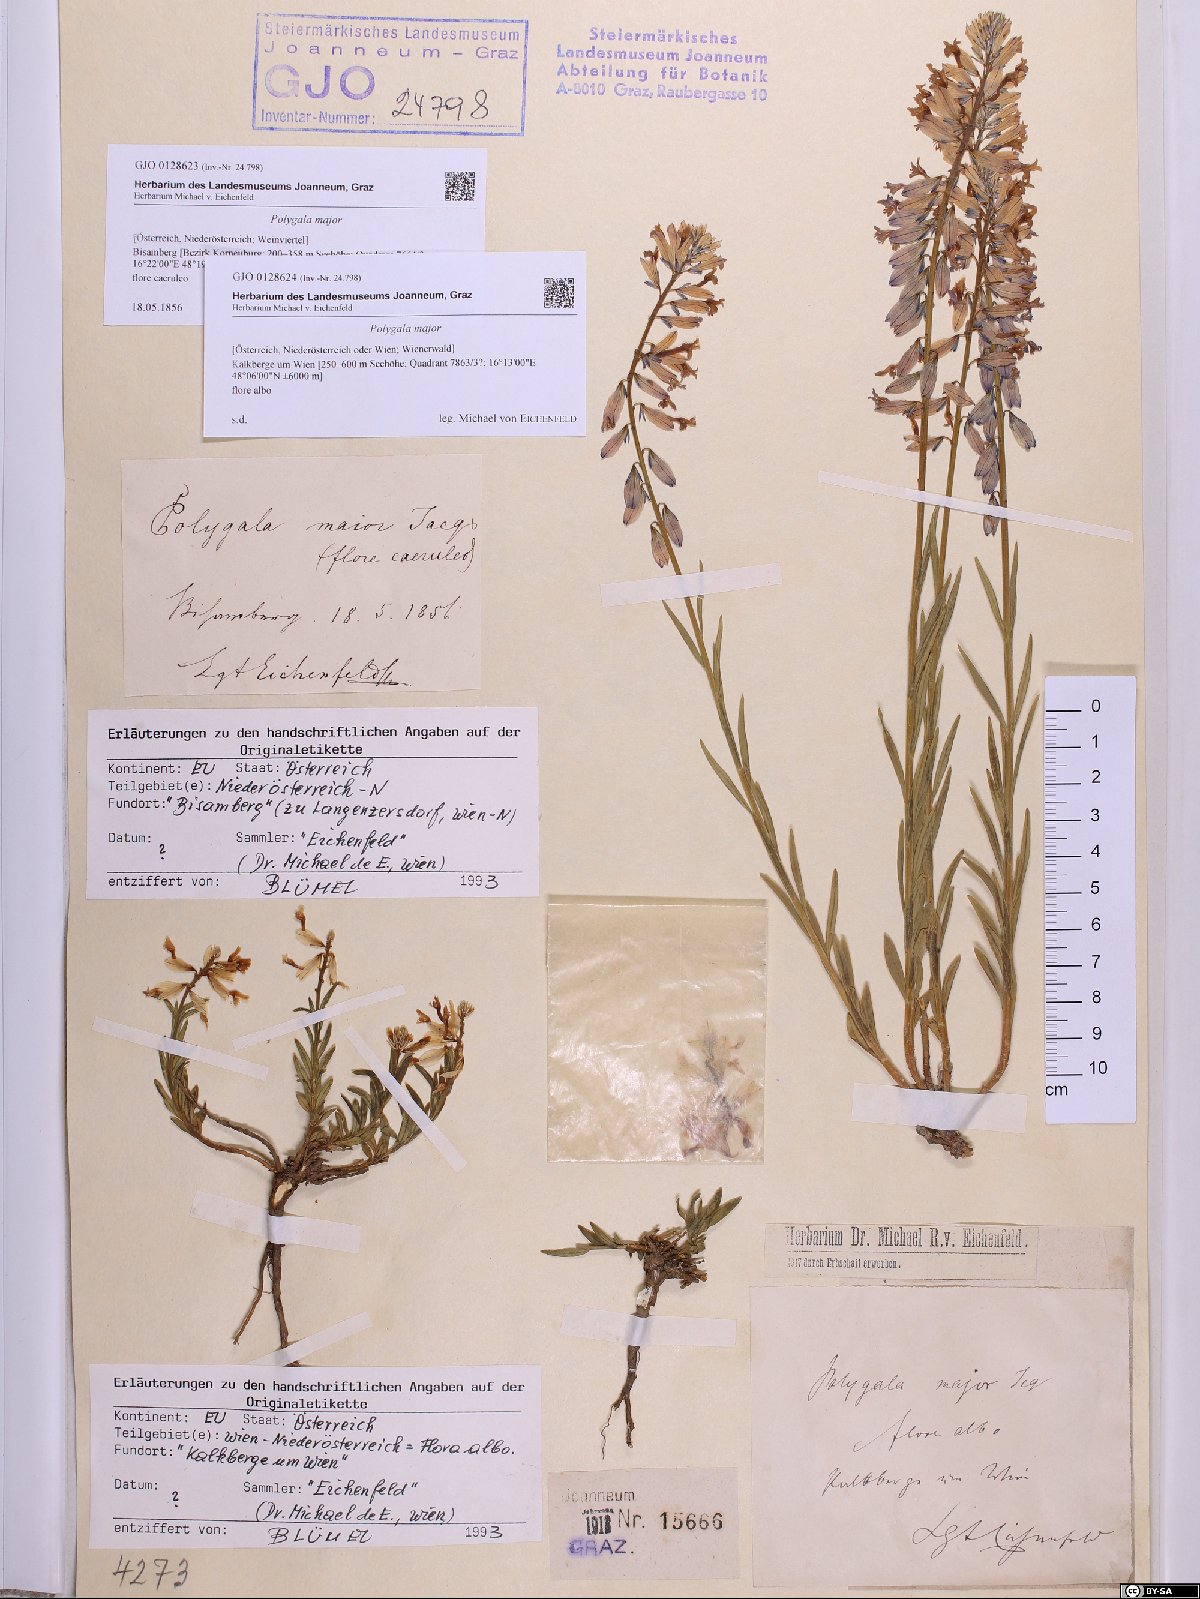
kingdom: Plantae
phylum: Tracheophyta
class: Magnoliopsida
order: Fabales
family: Polygalaceae
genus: Polygala
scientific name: Polygala major
